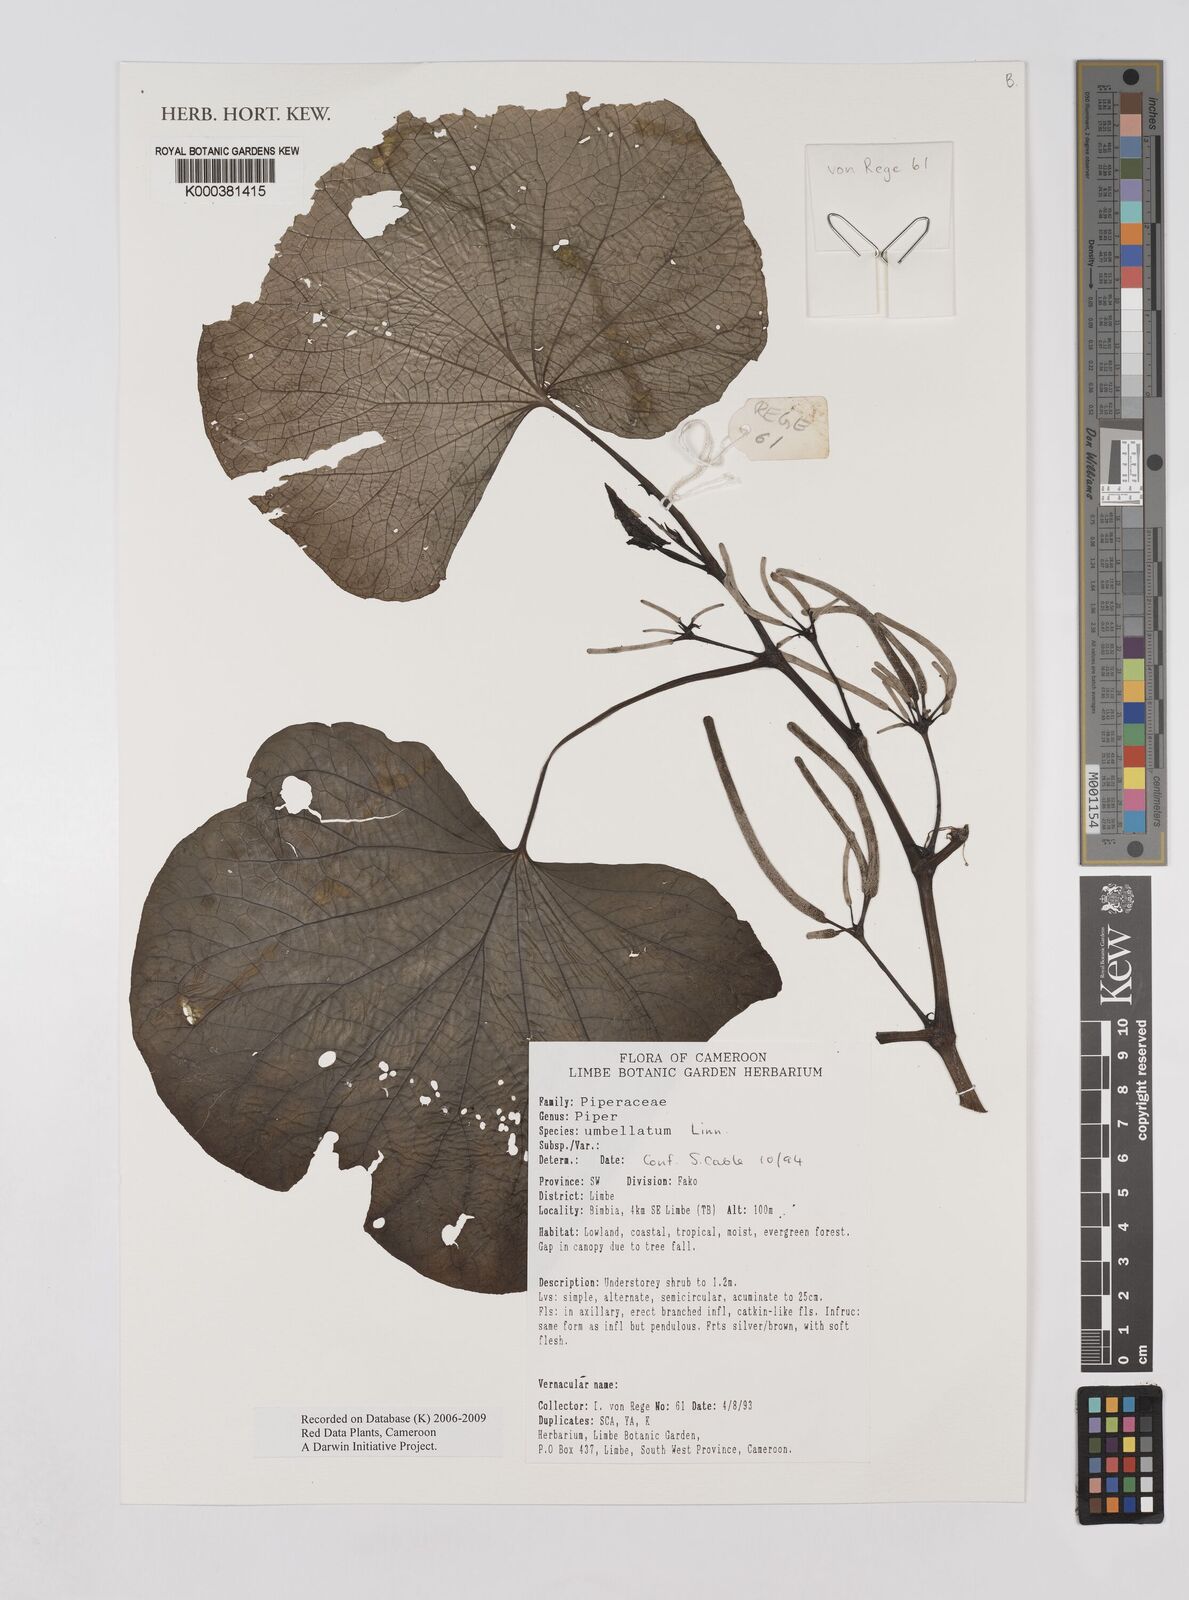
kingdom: Plantae
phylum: Tracheophyta
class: Magnoliopsida
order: Piperales
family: Piperaceae
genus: Piper
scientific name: Piper umbellatum
